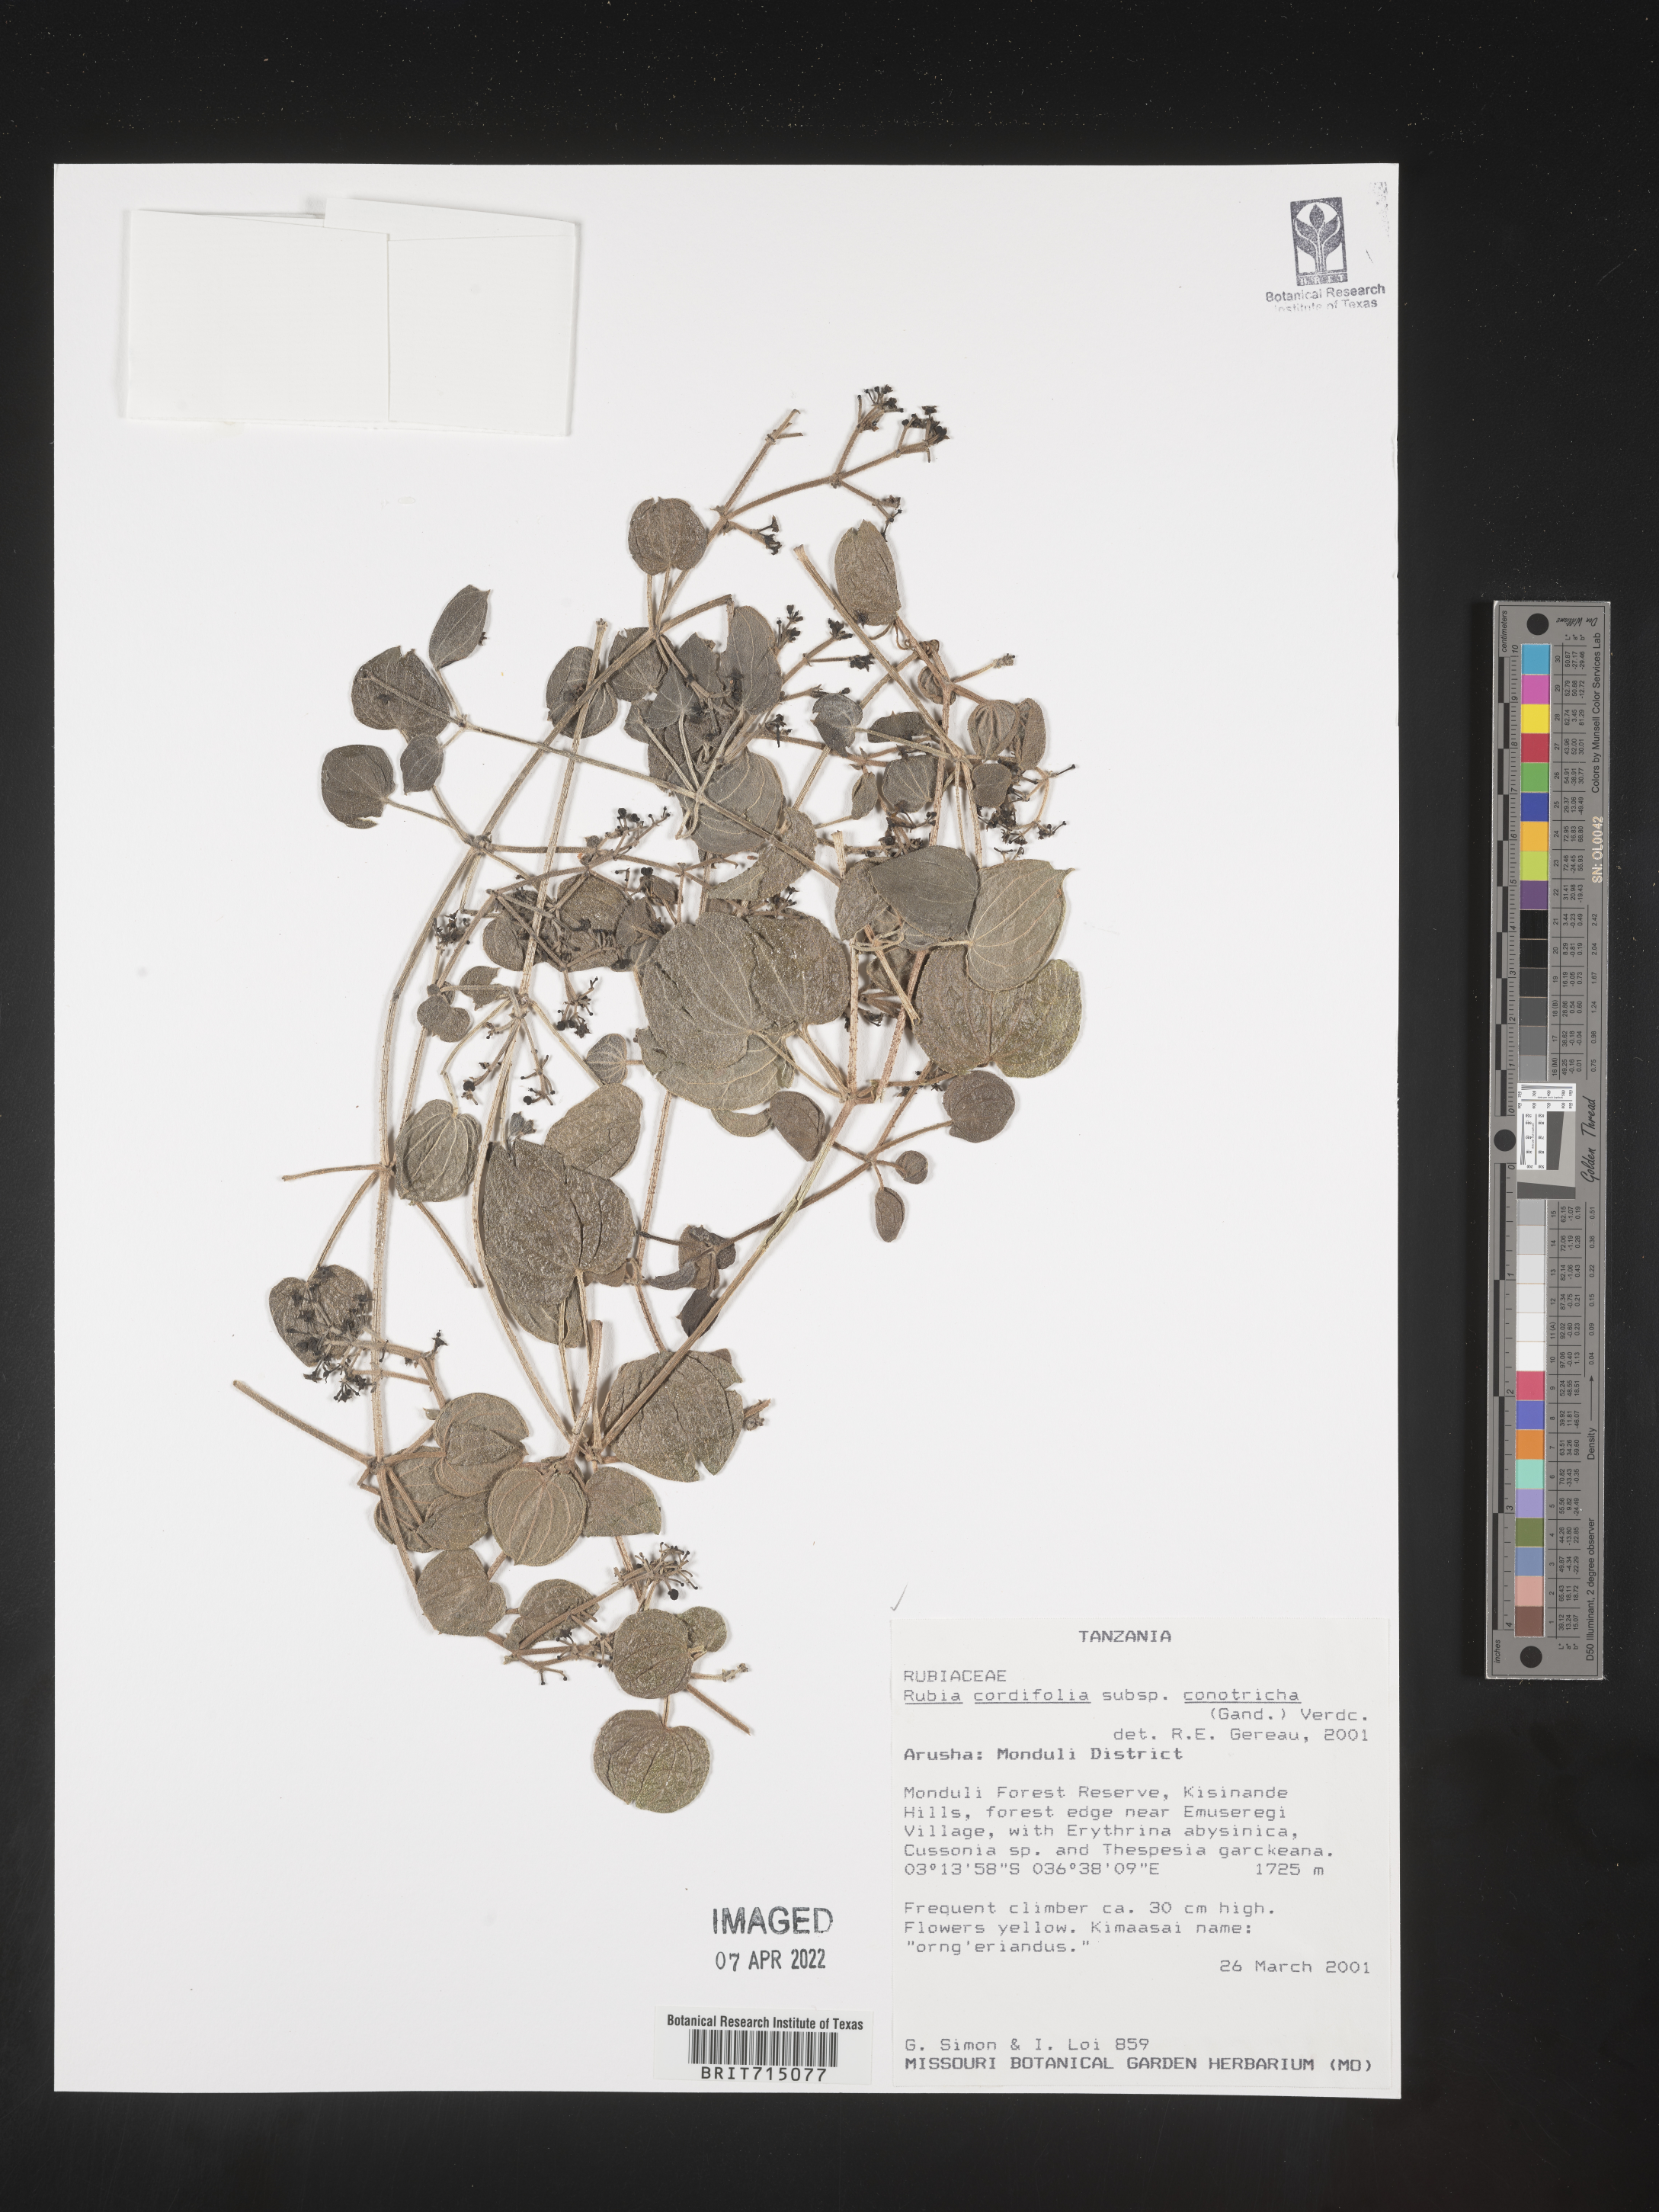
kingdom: Plantae
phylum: Tracheophyta
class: Magnoliopsida
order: Gentianales
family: Rubiaceae
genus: Rubia
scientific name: Rubia
